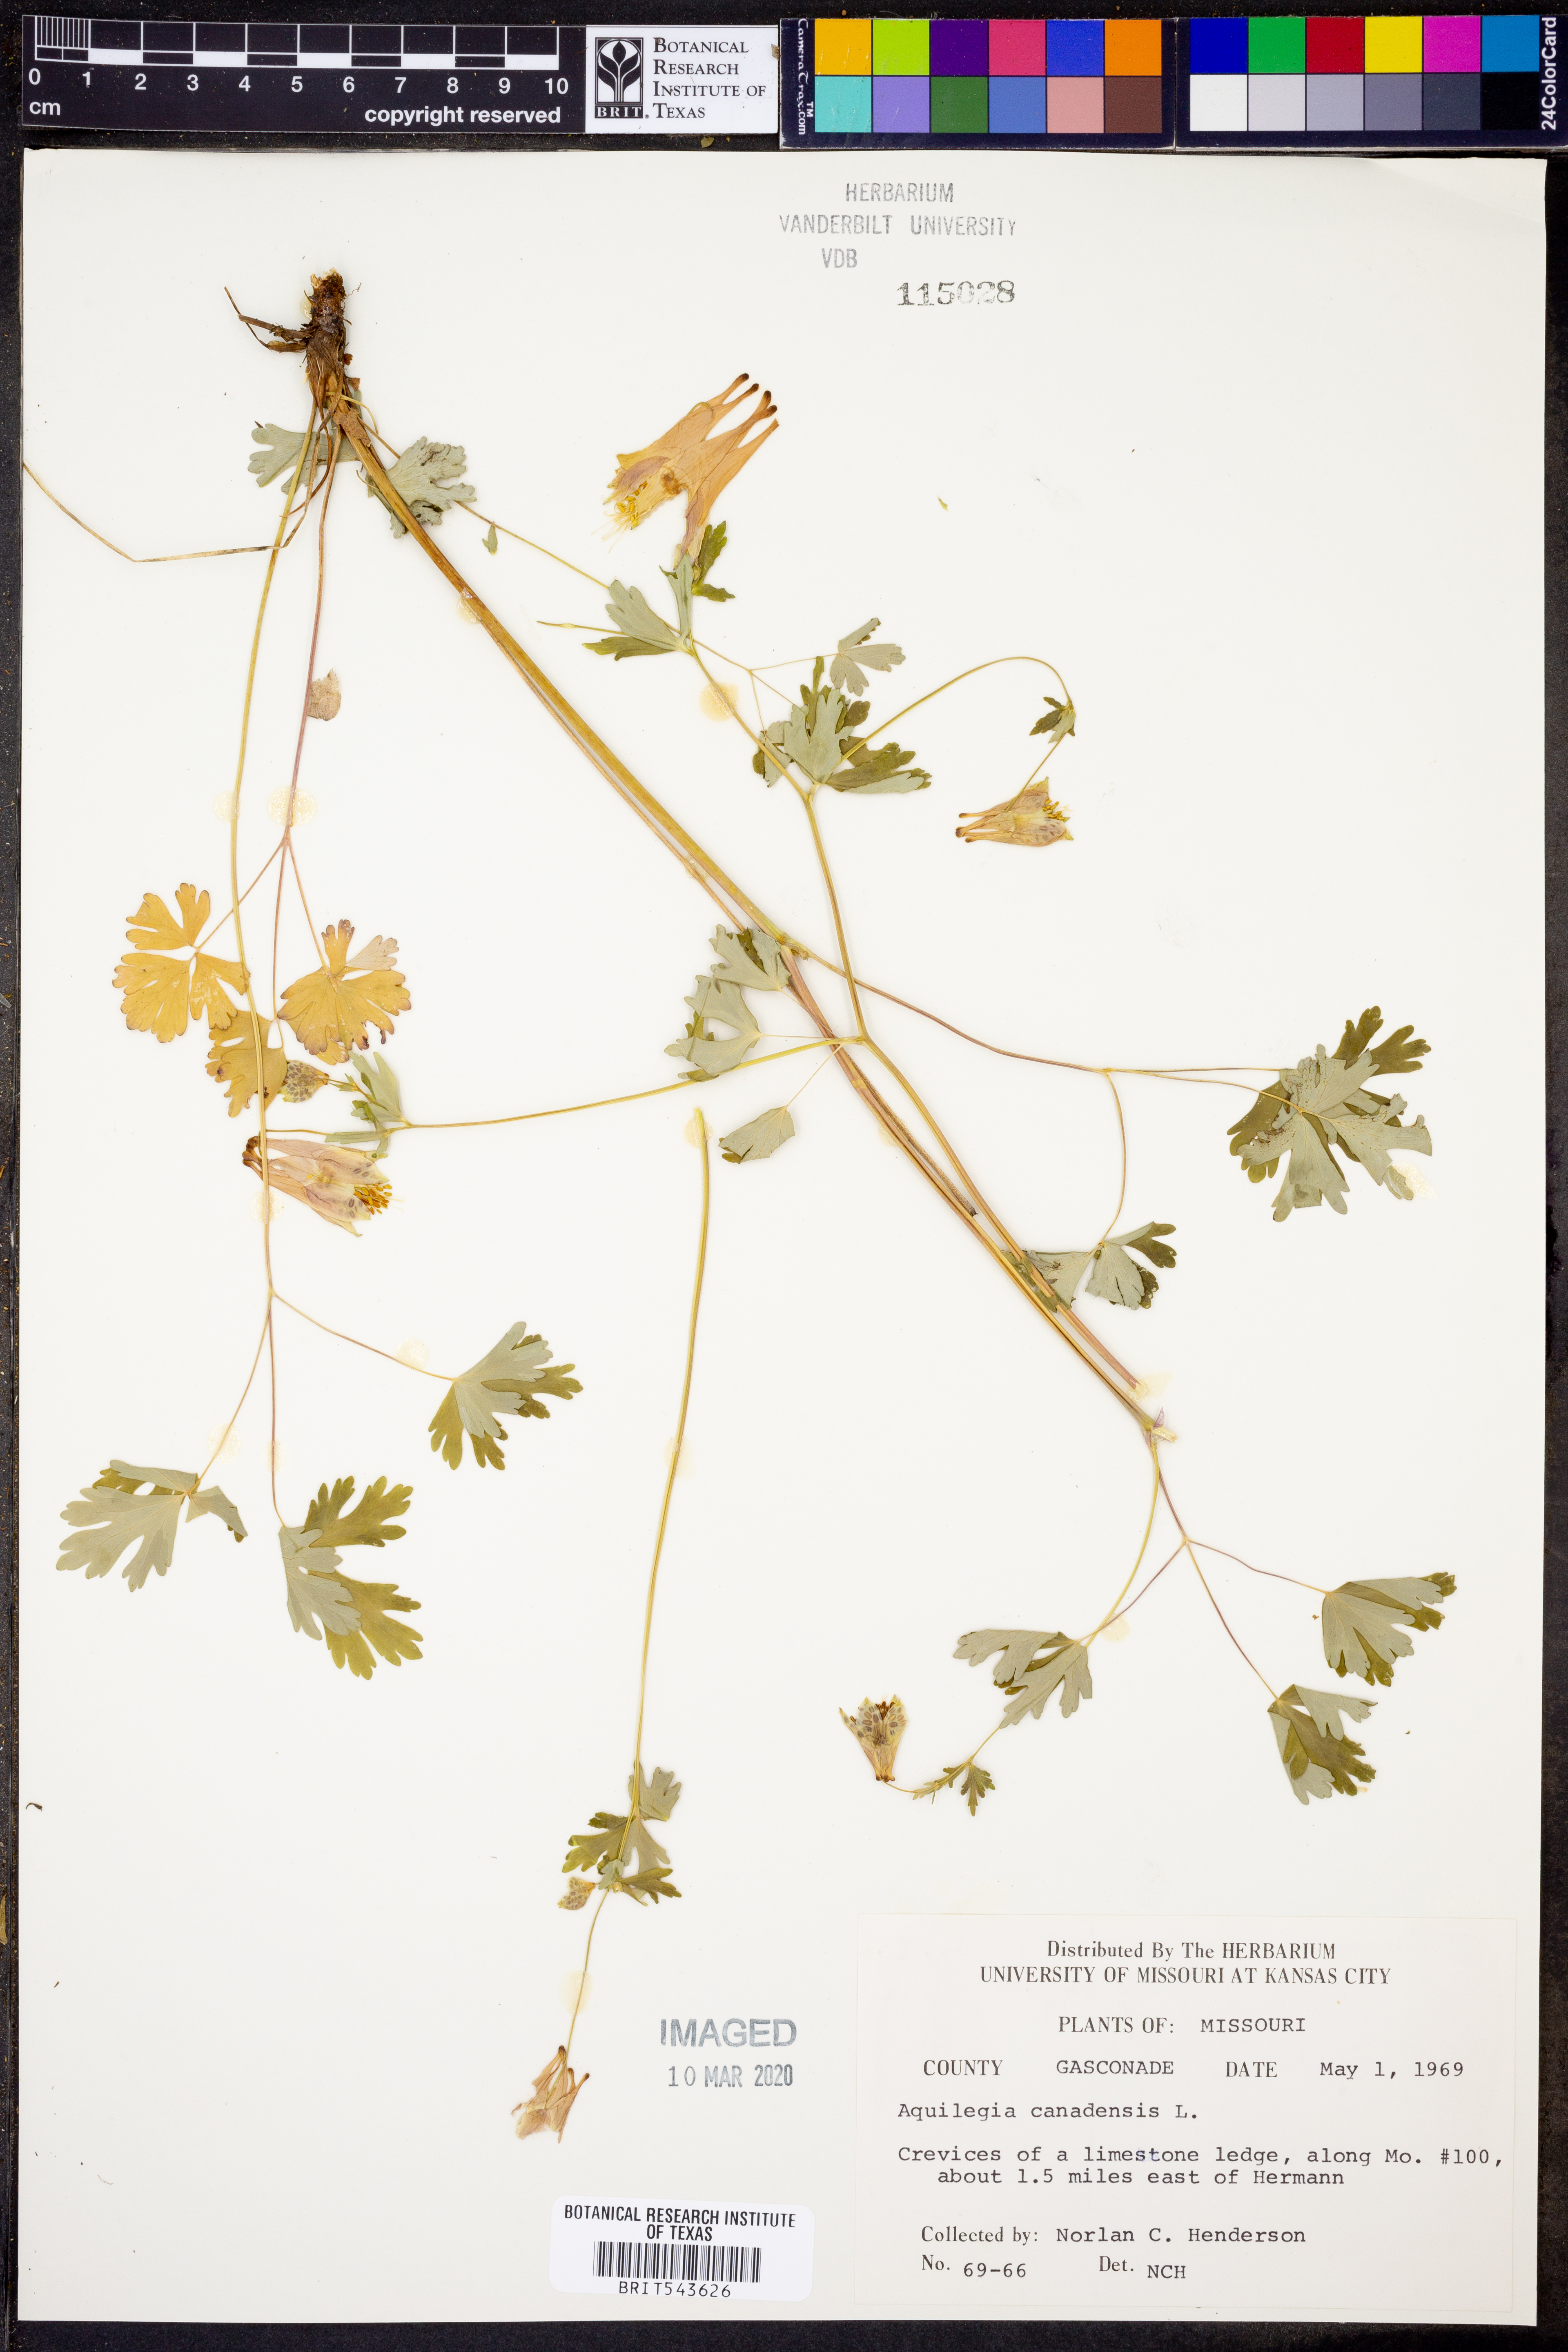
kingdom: Plantae
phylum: Tracheophyta
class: Magnoliopsida
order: Ranunculales
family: Ranunculaceae
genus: Aquilegia
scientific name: Aquilegia canadensis
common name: American columbine
